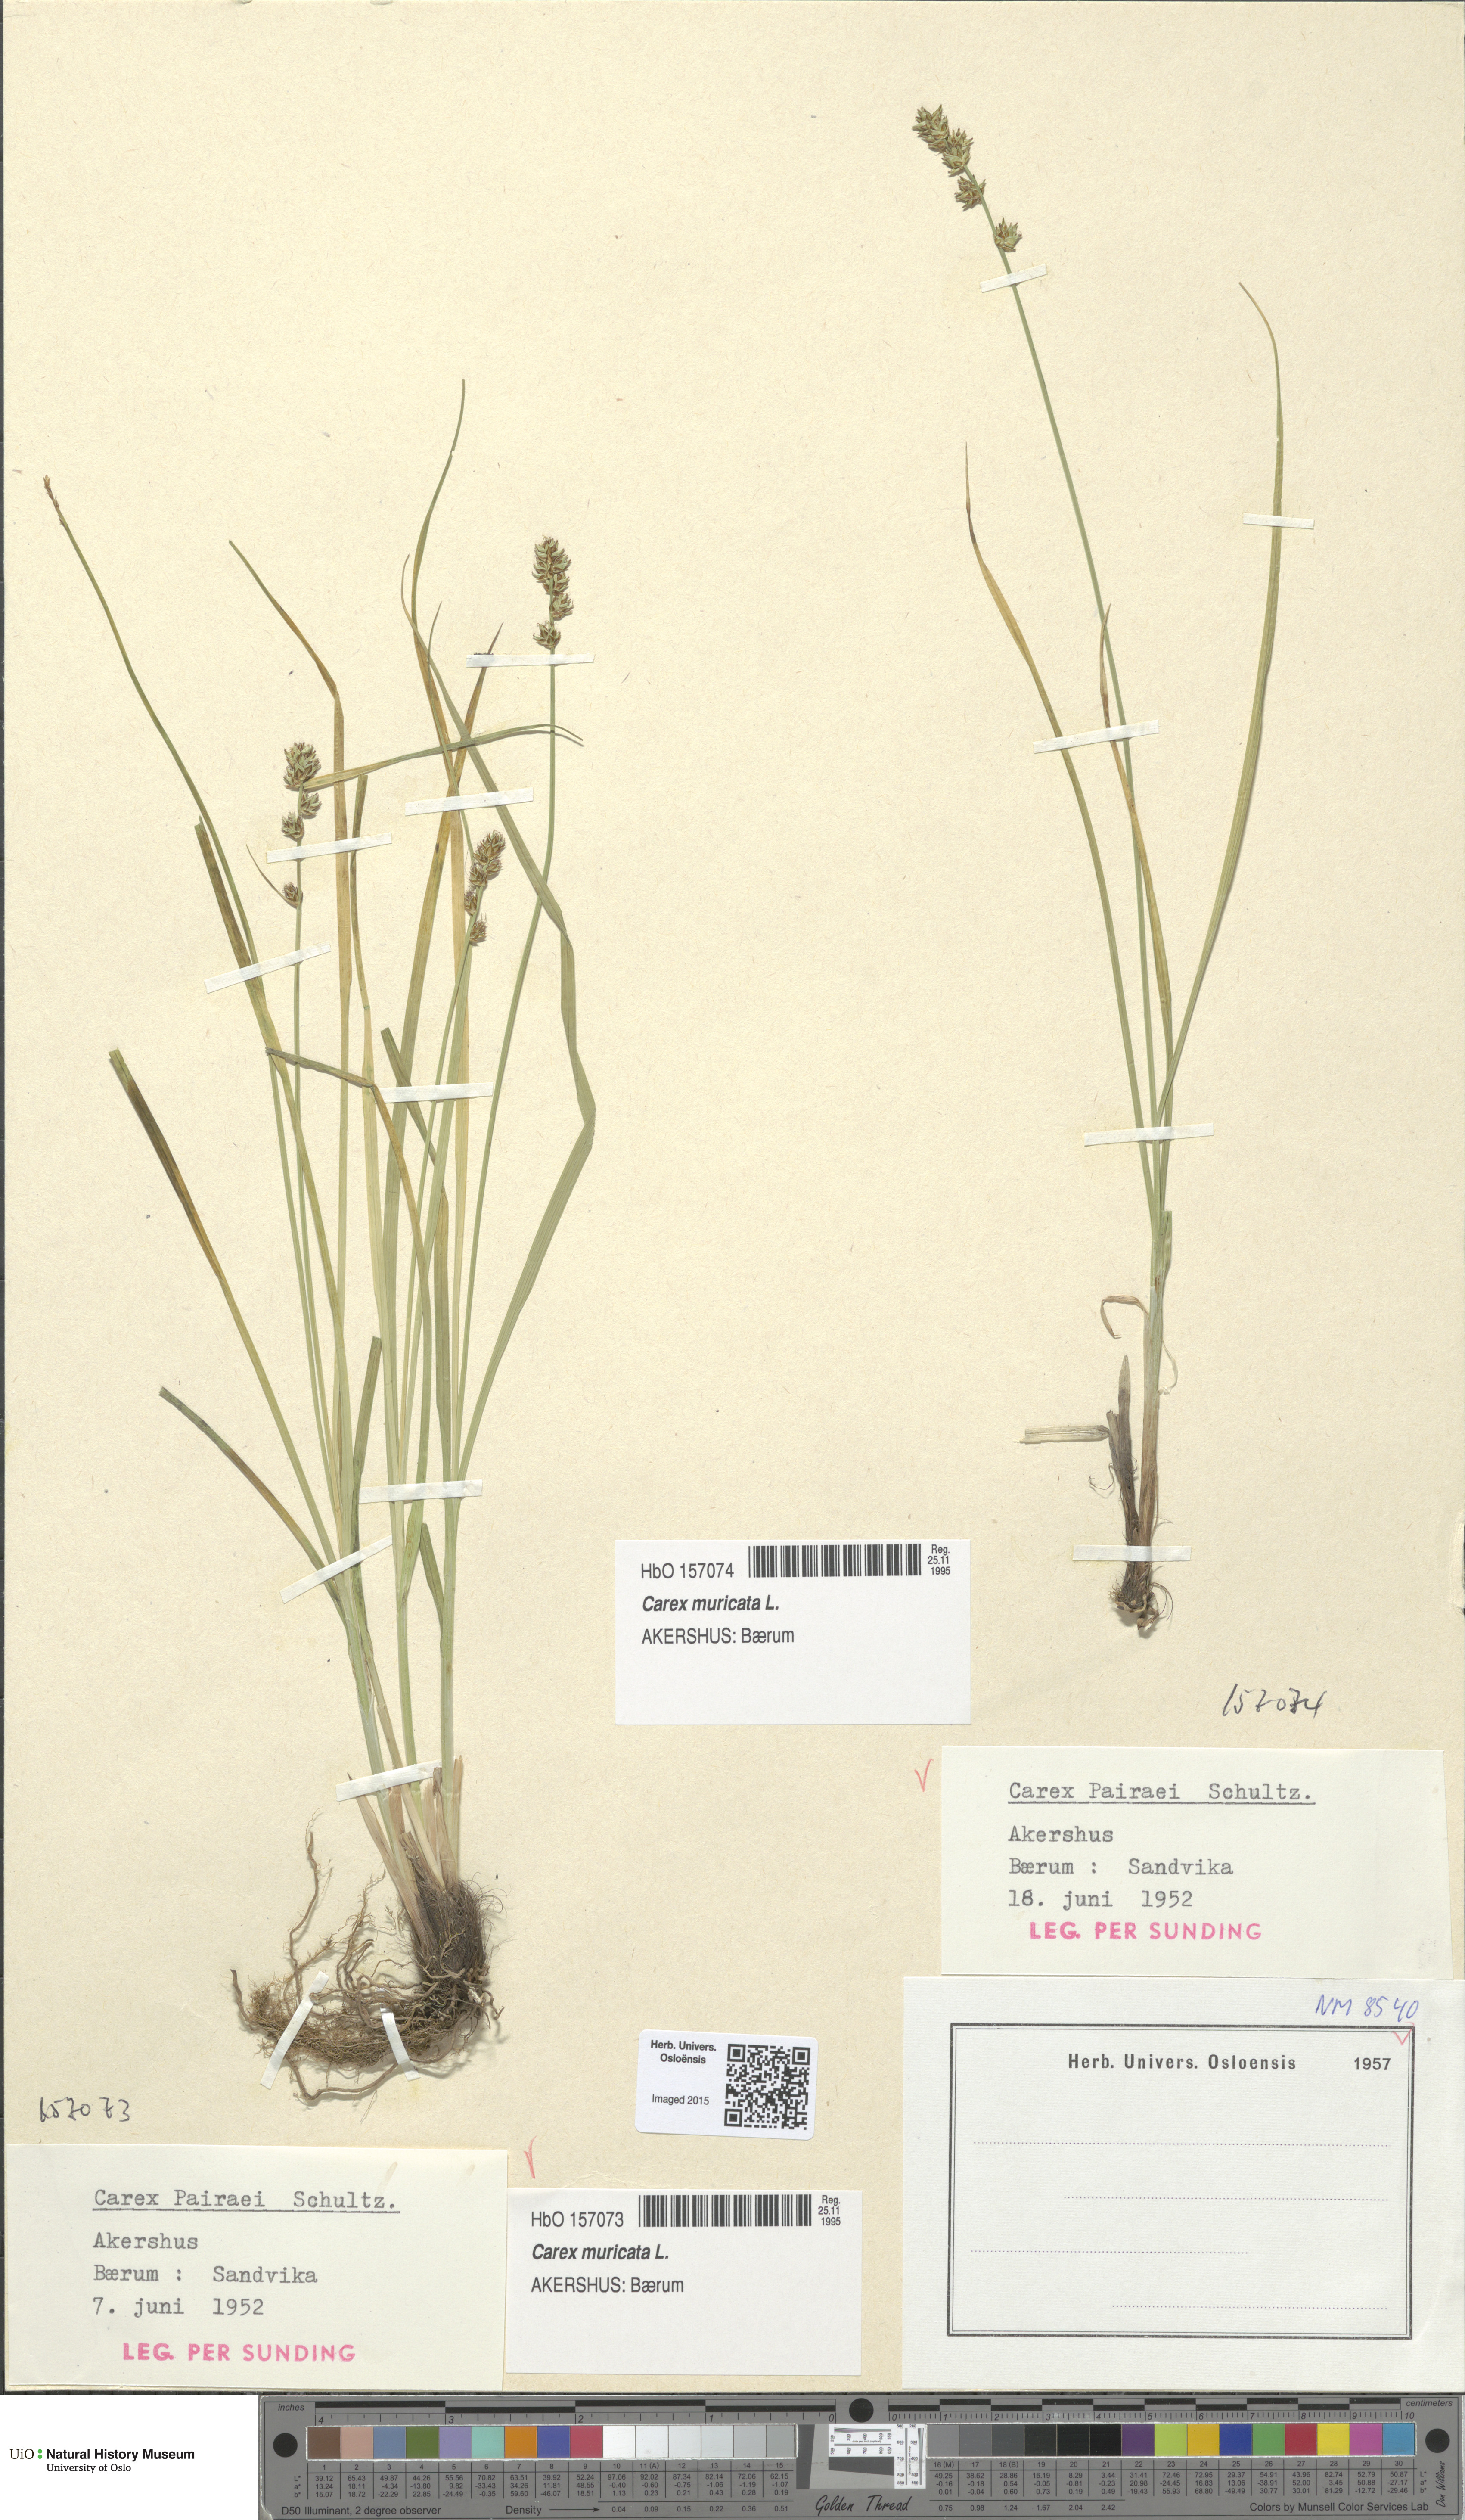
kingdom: Plantae
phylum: Tracheophyta
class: Liliopsida
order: Poales
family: Cyperaceae
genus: Carex
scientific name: Carex pairae
